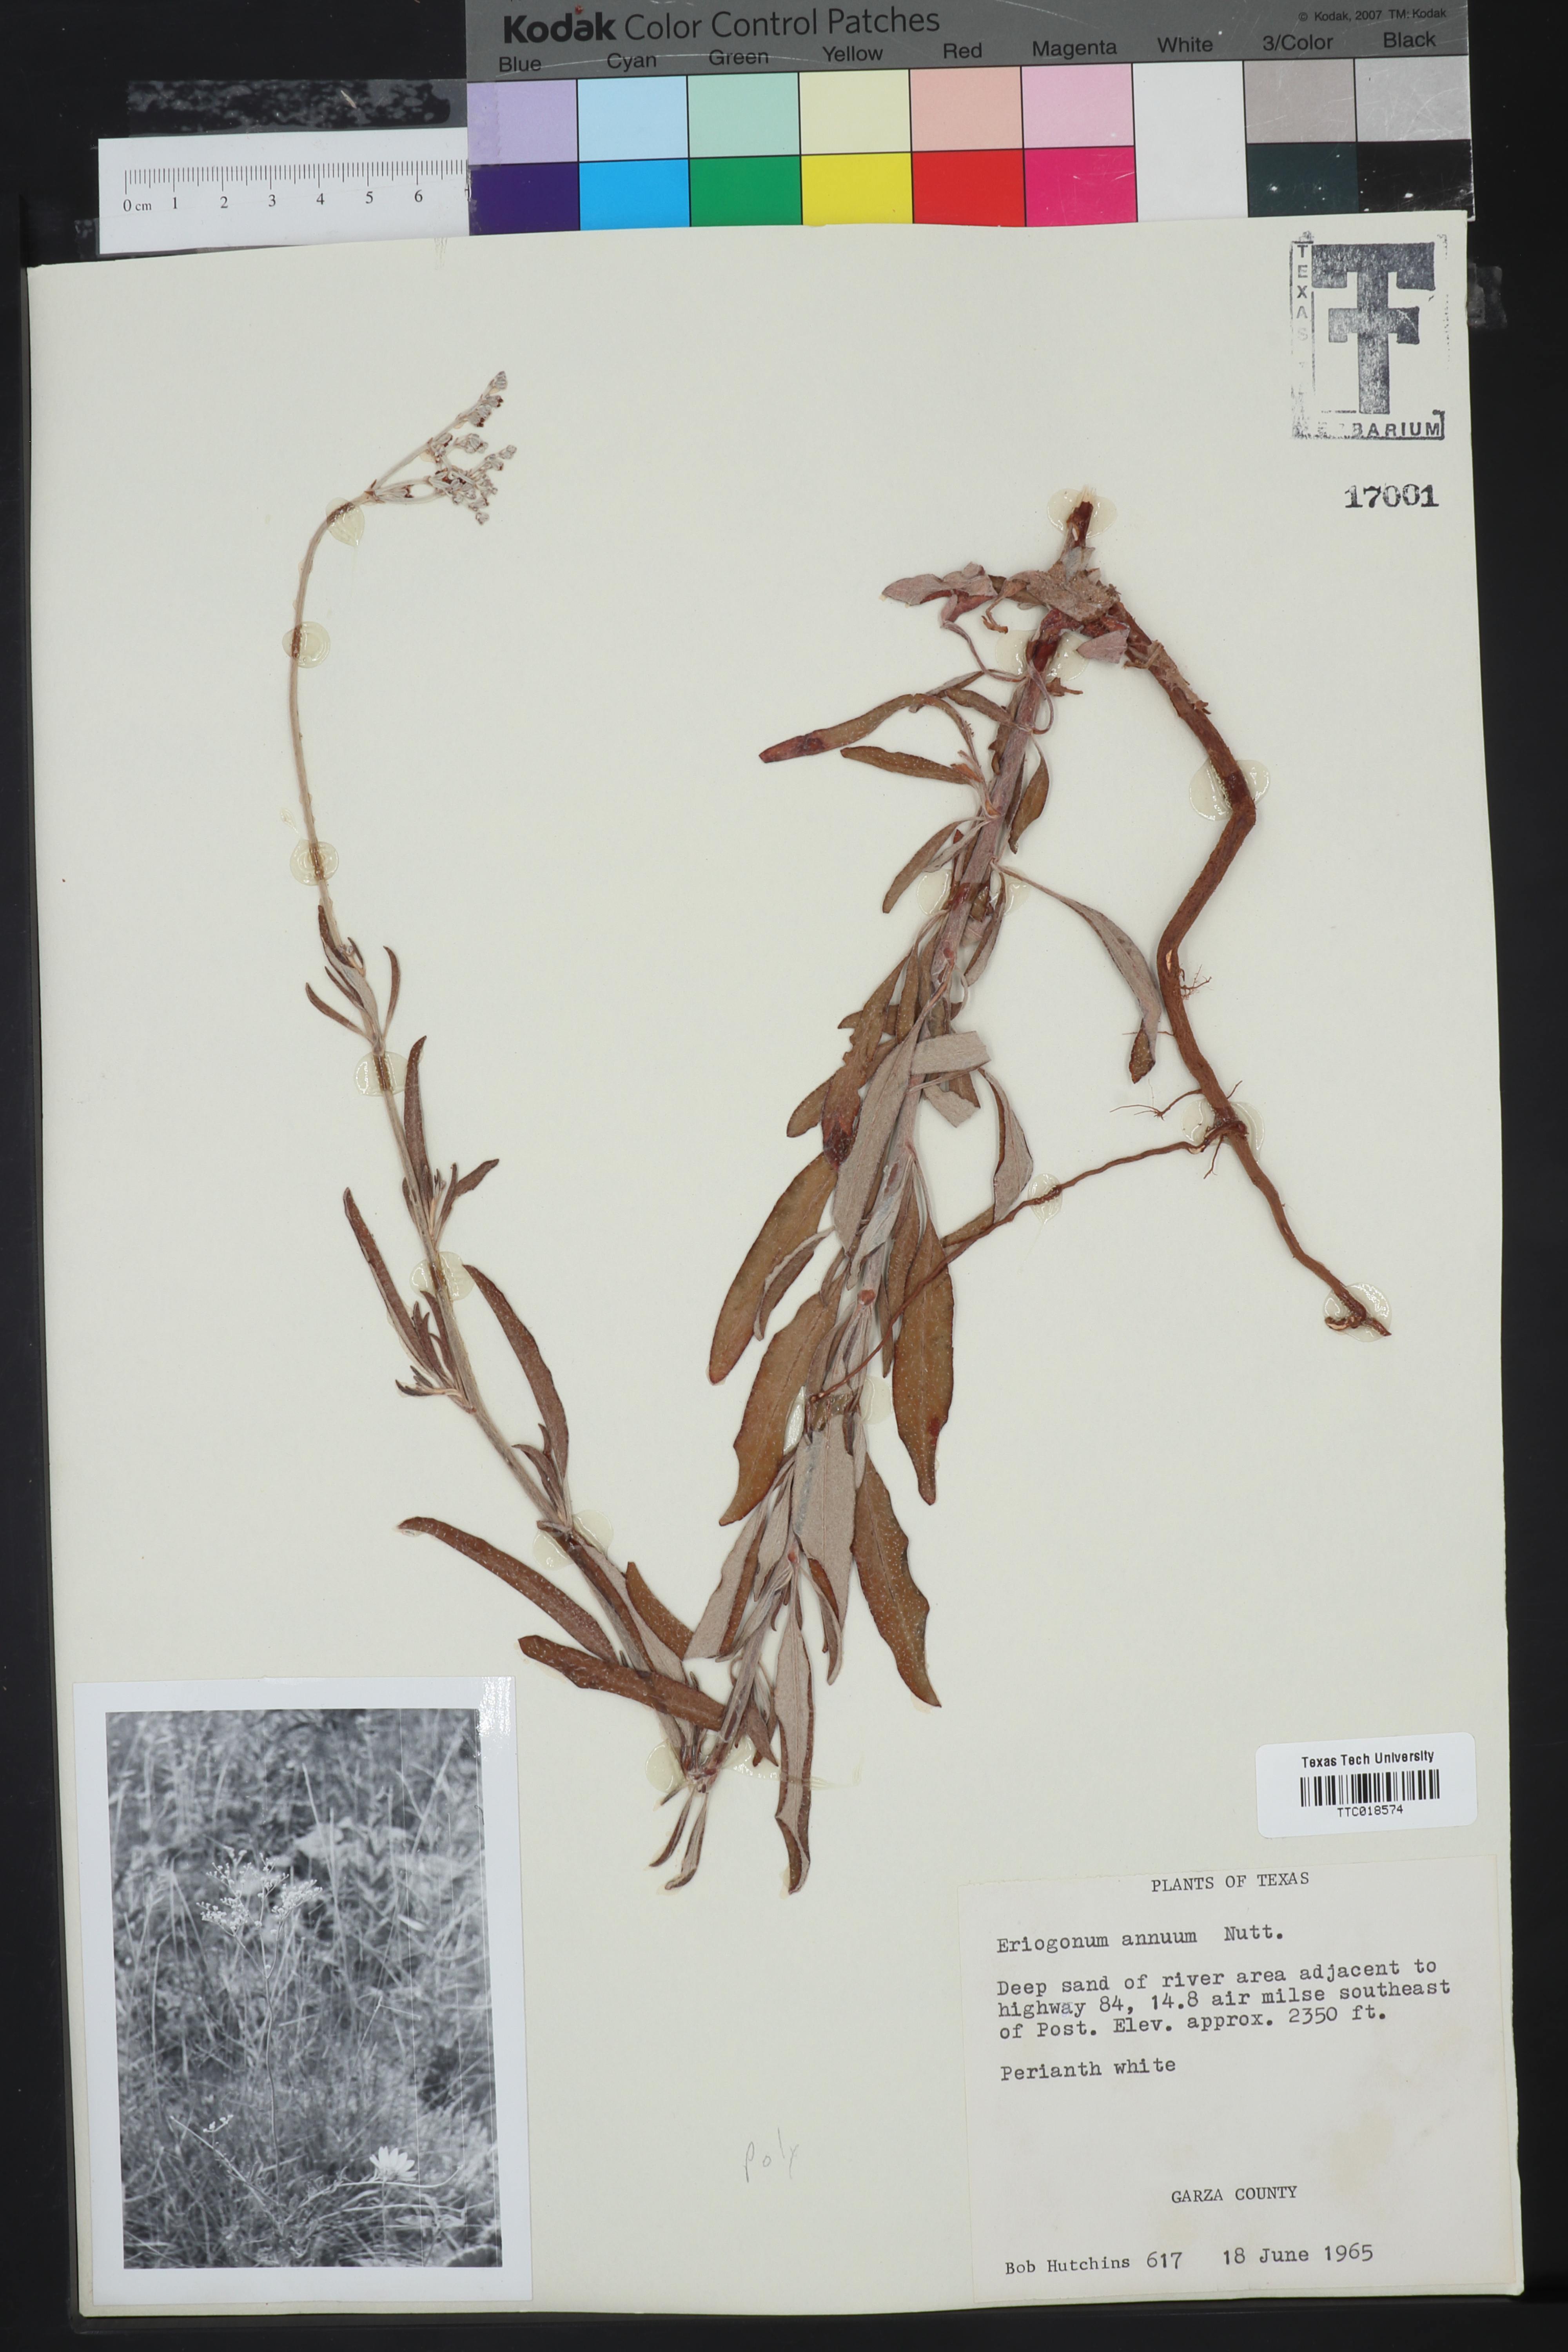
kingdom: Plantae
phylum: Tracheophyta
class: Magnoliopsida
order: Caryophyllales
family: Polygonaceae
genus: Eriogonum
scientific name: Eriogonum annuum
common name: Annual wild buckwheat
